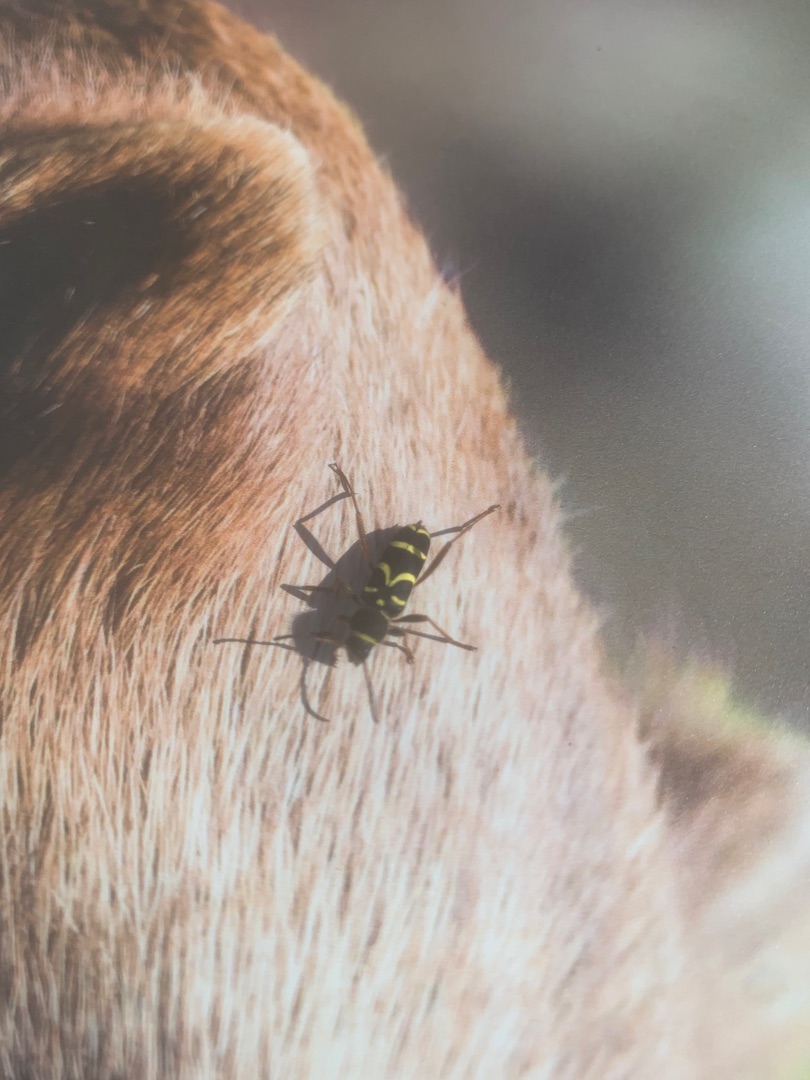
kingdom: Animalia
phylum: Arthropoda
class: Insecta
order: Coleoptera
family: Cerambycidae
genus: Clytus
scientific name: Clytus arietis
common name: Lille hvepsebuk
